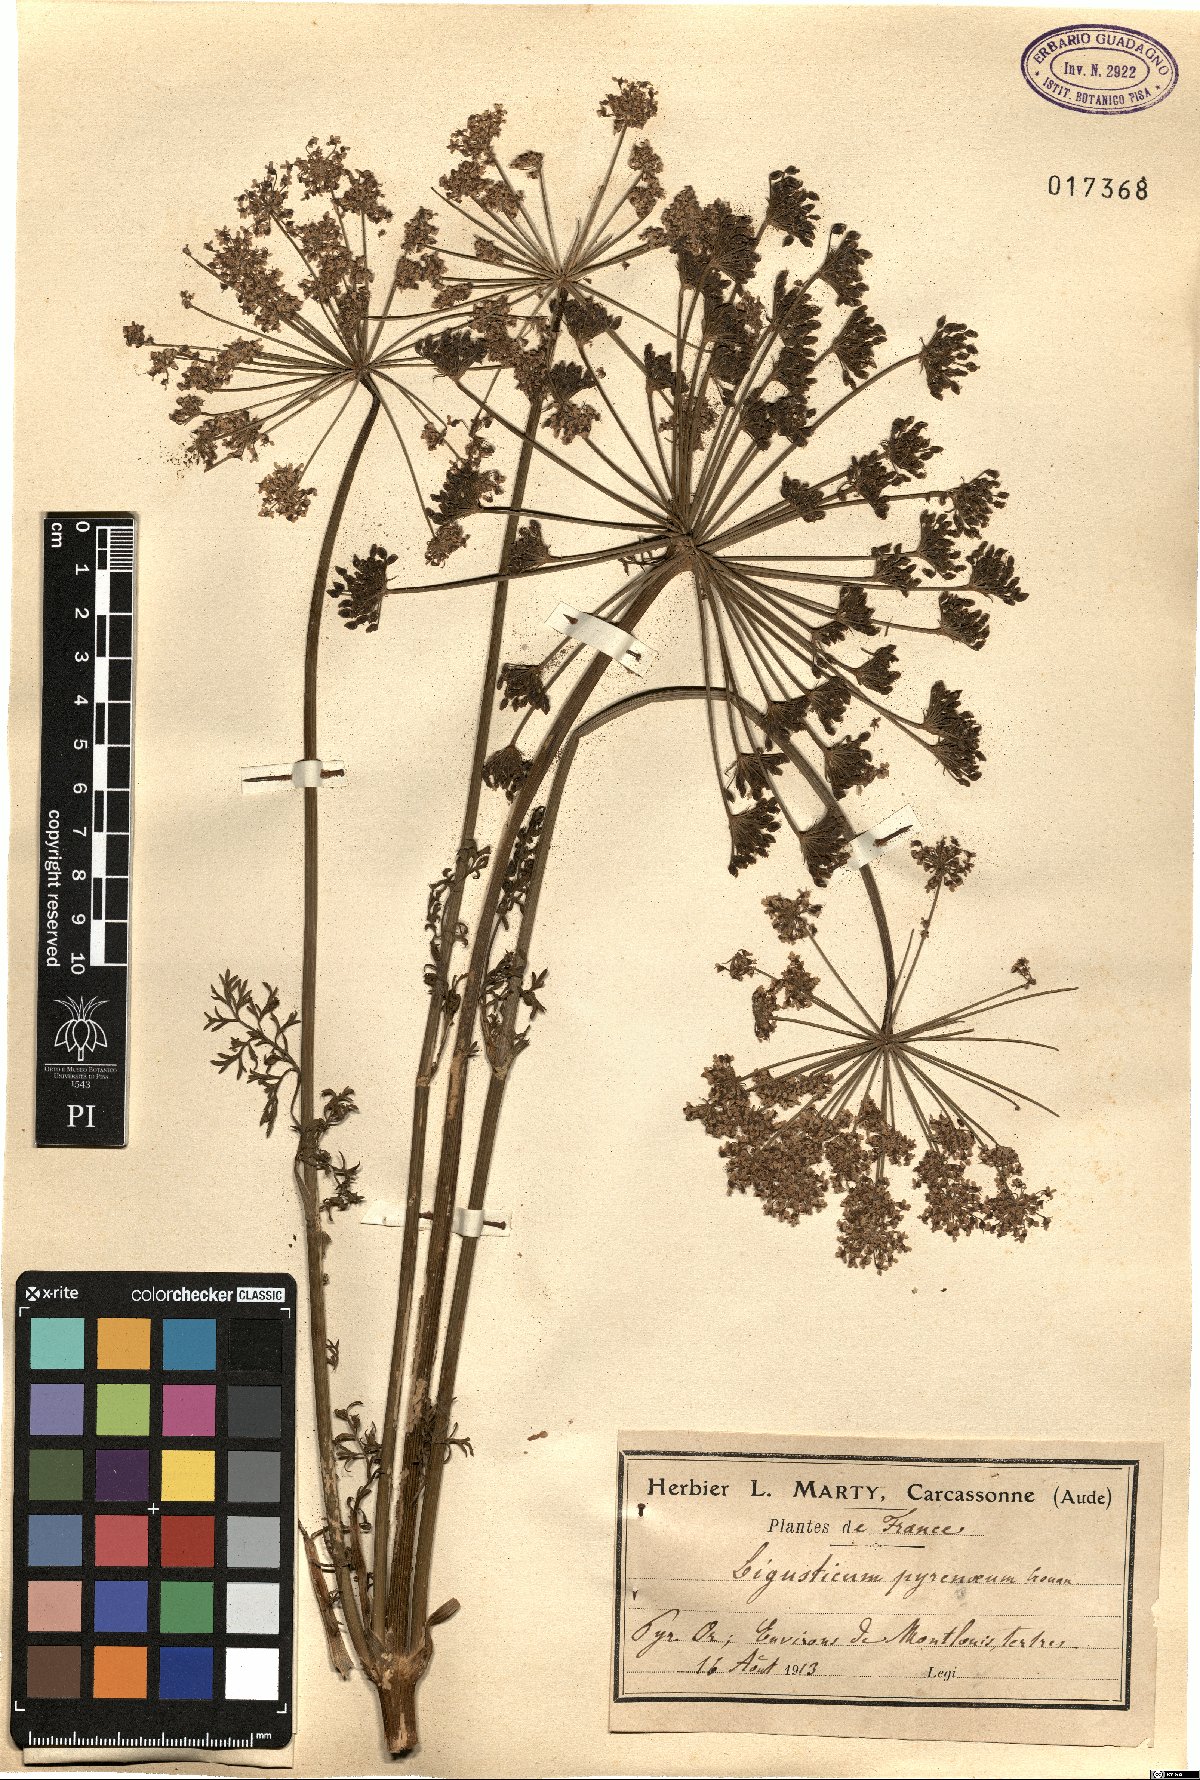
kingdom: Plantae
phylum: Tracheophyta
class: Magnoliopsida
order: Apiales
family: Apiaceae
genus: Coristospermum
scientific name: Coristospermum lucidum
